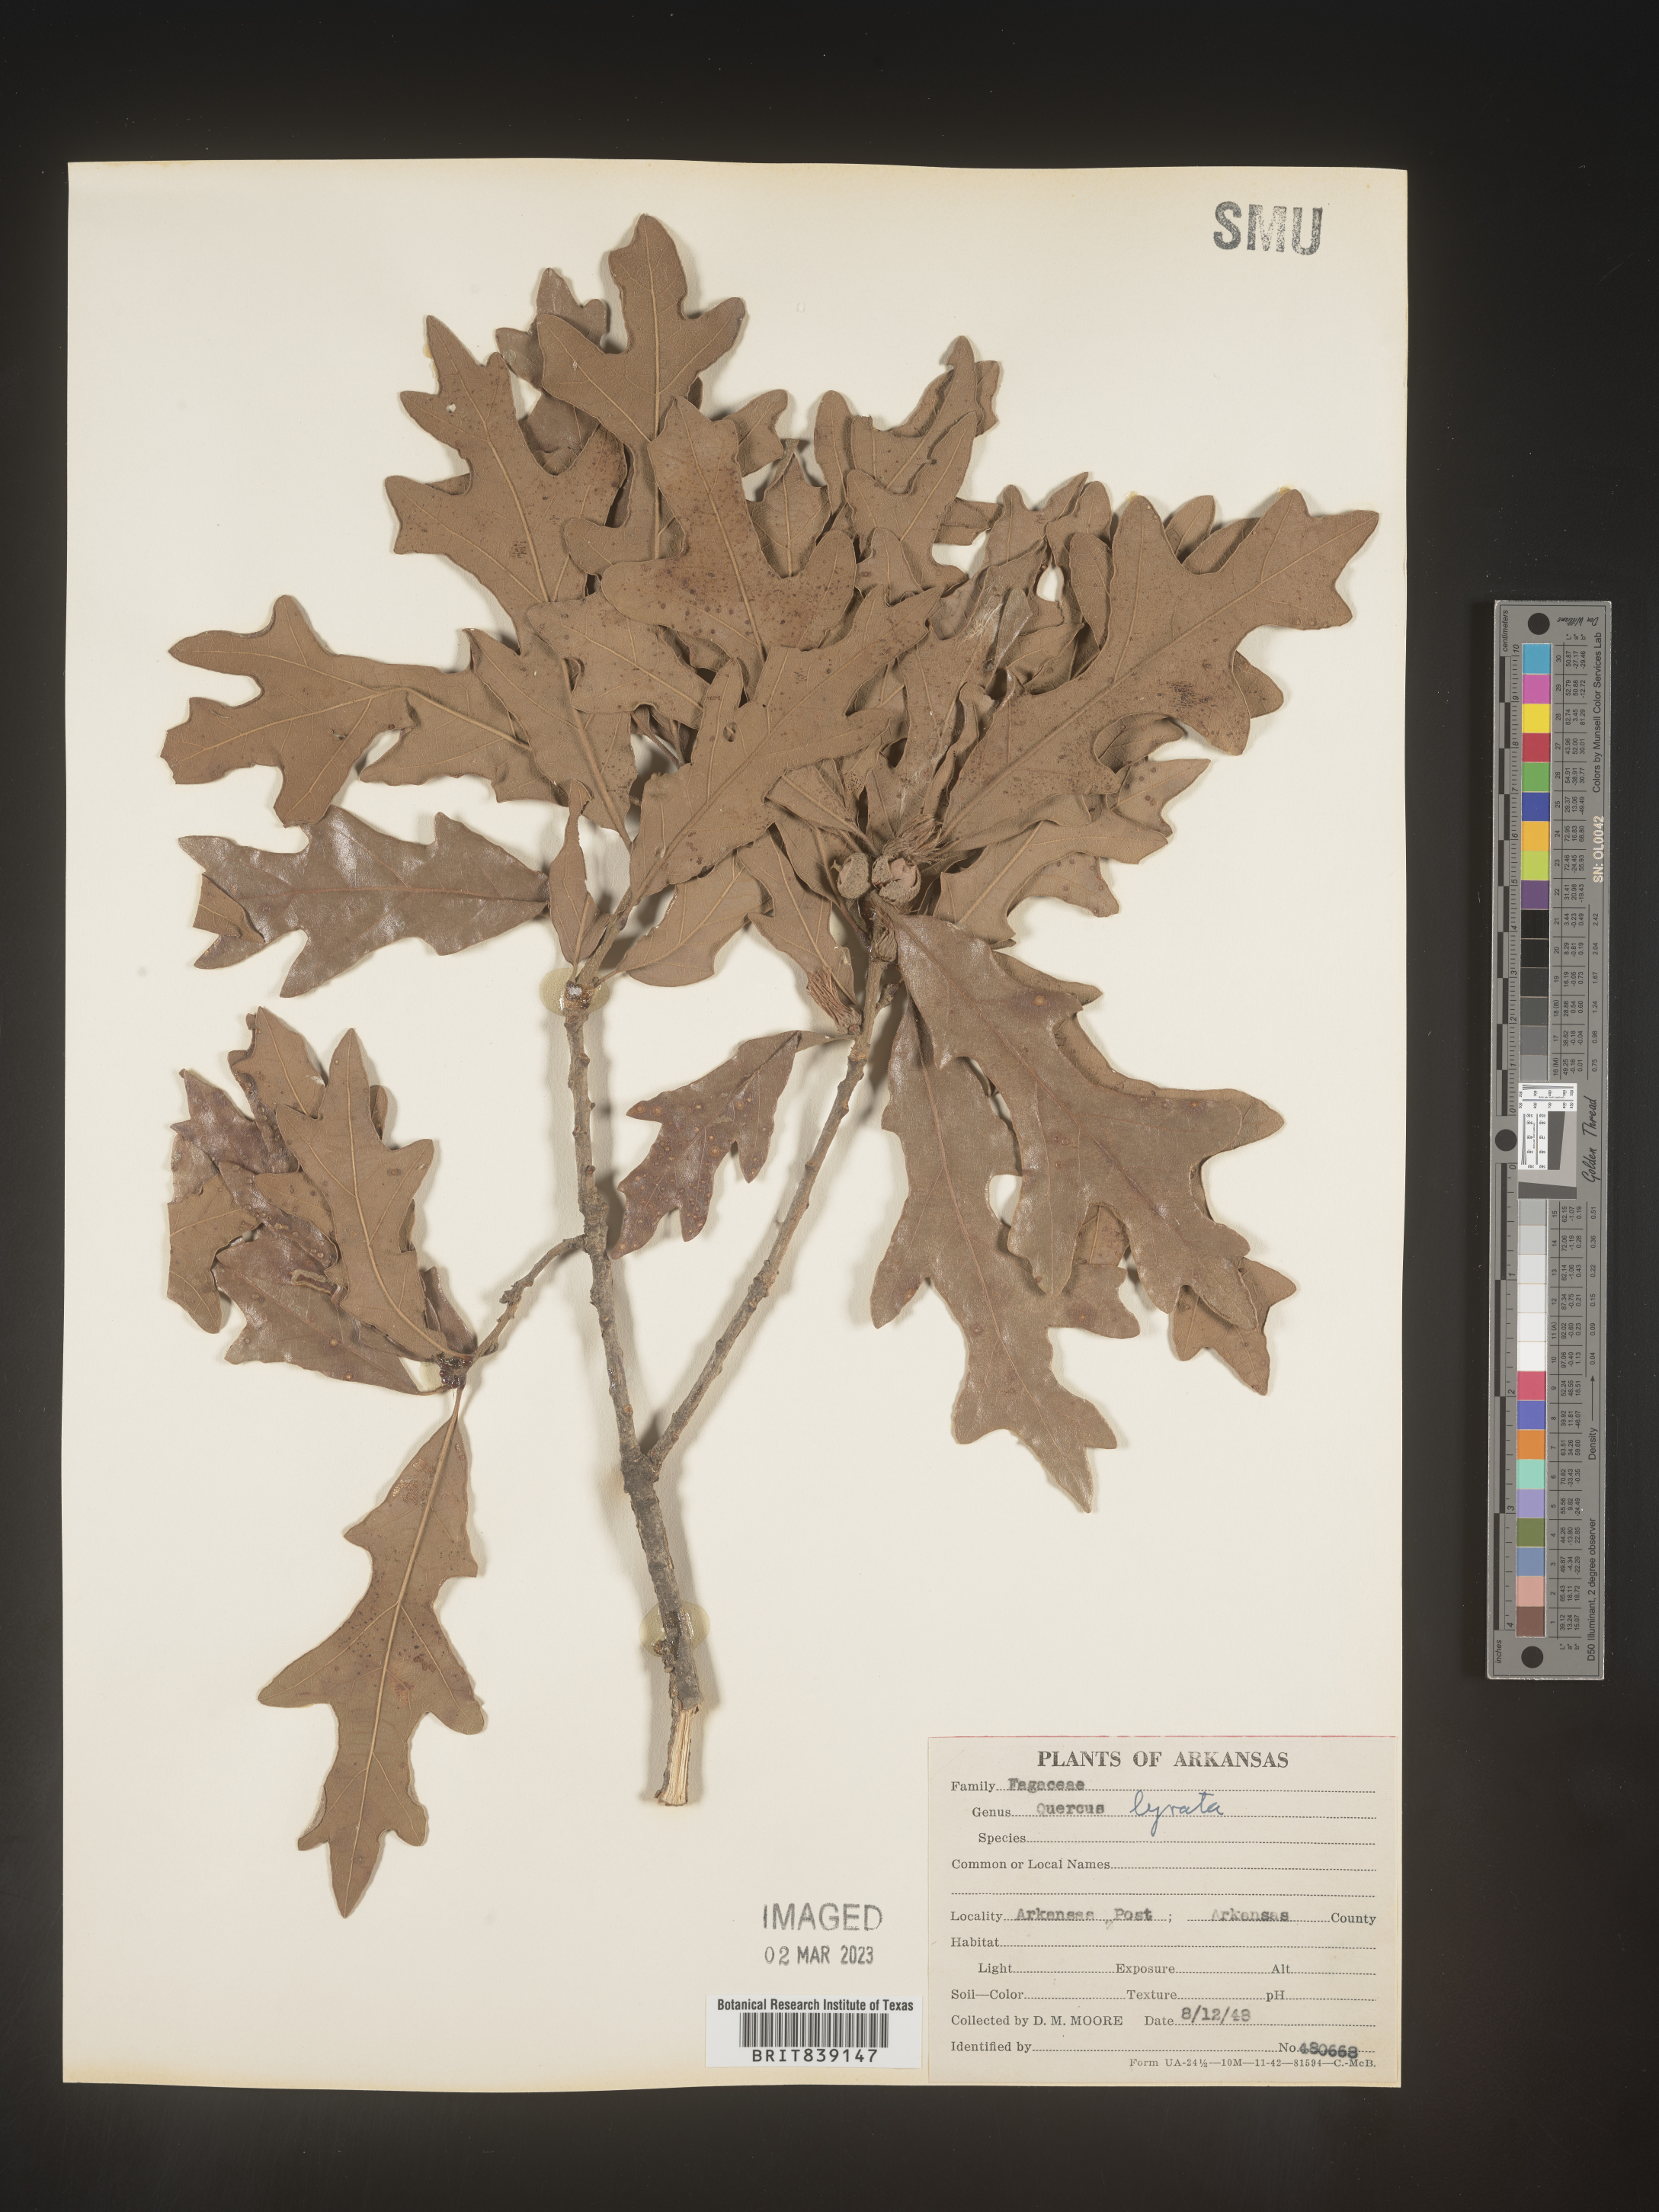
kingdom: Plantae
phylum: Tracheophyta
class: Magnoliopsida
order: Fagales
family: Fagaceae
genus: Quercus
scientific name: Quercus lyrata
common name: Overcup oak
